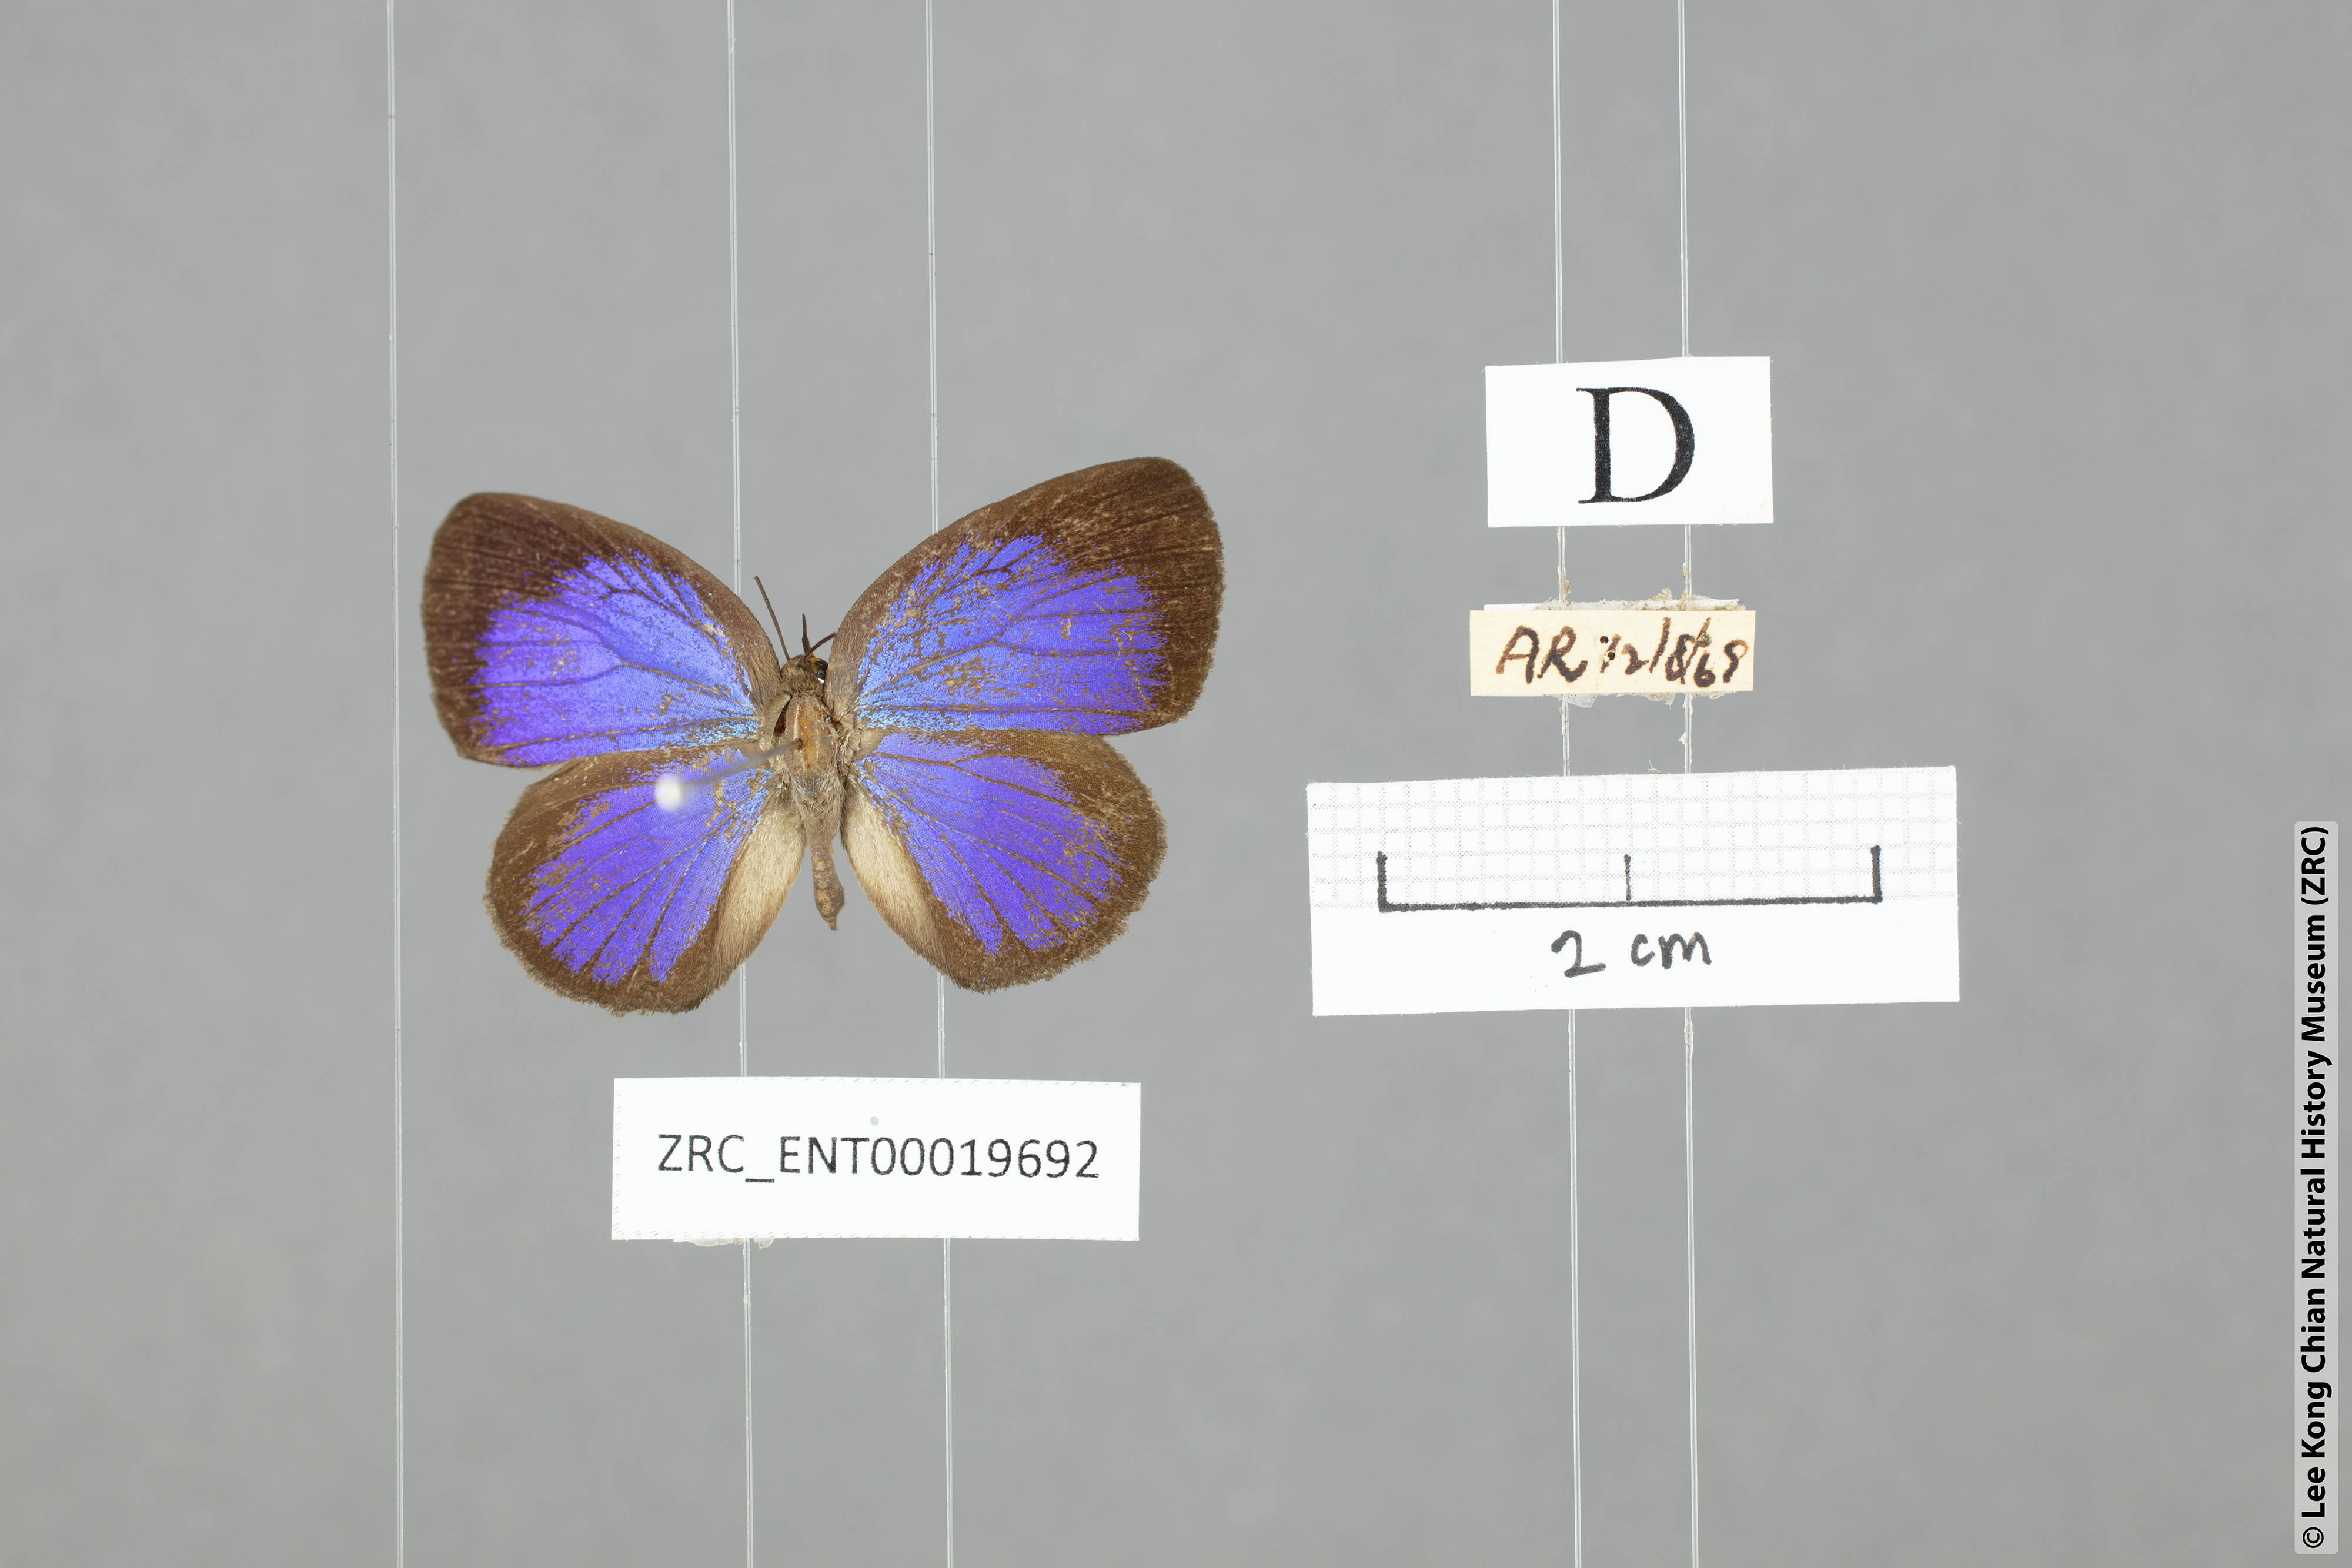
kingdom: Animalia
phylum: Arthropoda
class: Insecta
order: Lepidoptera
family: Lycaenidae
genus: Arhopala
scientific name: Arhopala moorei
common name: Moore's oakblue
